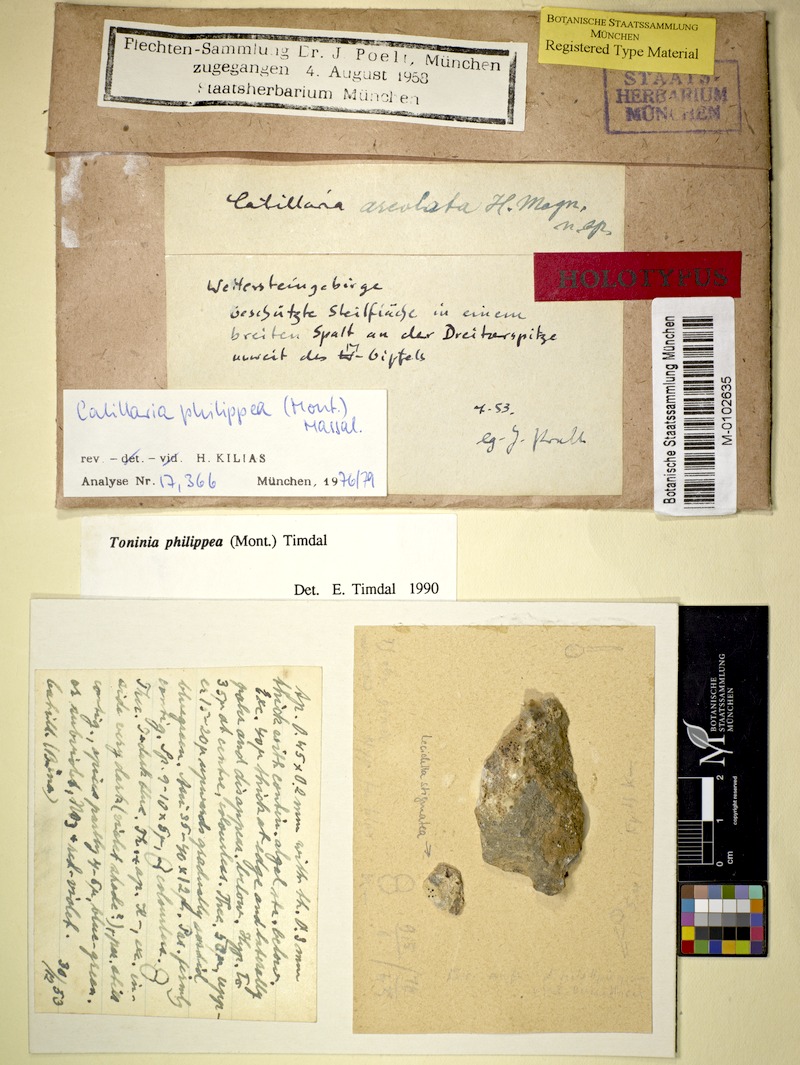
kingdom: Fungi
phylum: Ascomycota
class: Lecanoromycetes
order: Lecanorales
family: Ramalinaceae
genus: Kiliasia
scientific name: Kiliasia philippea
